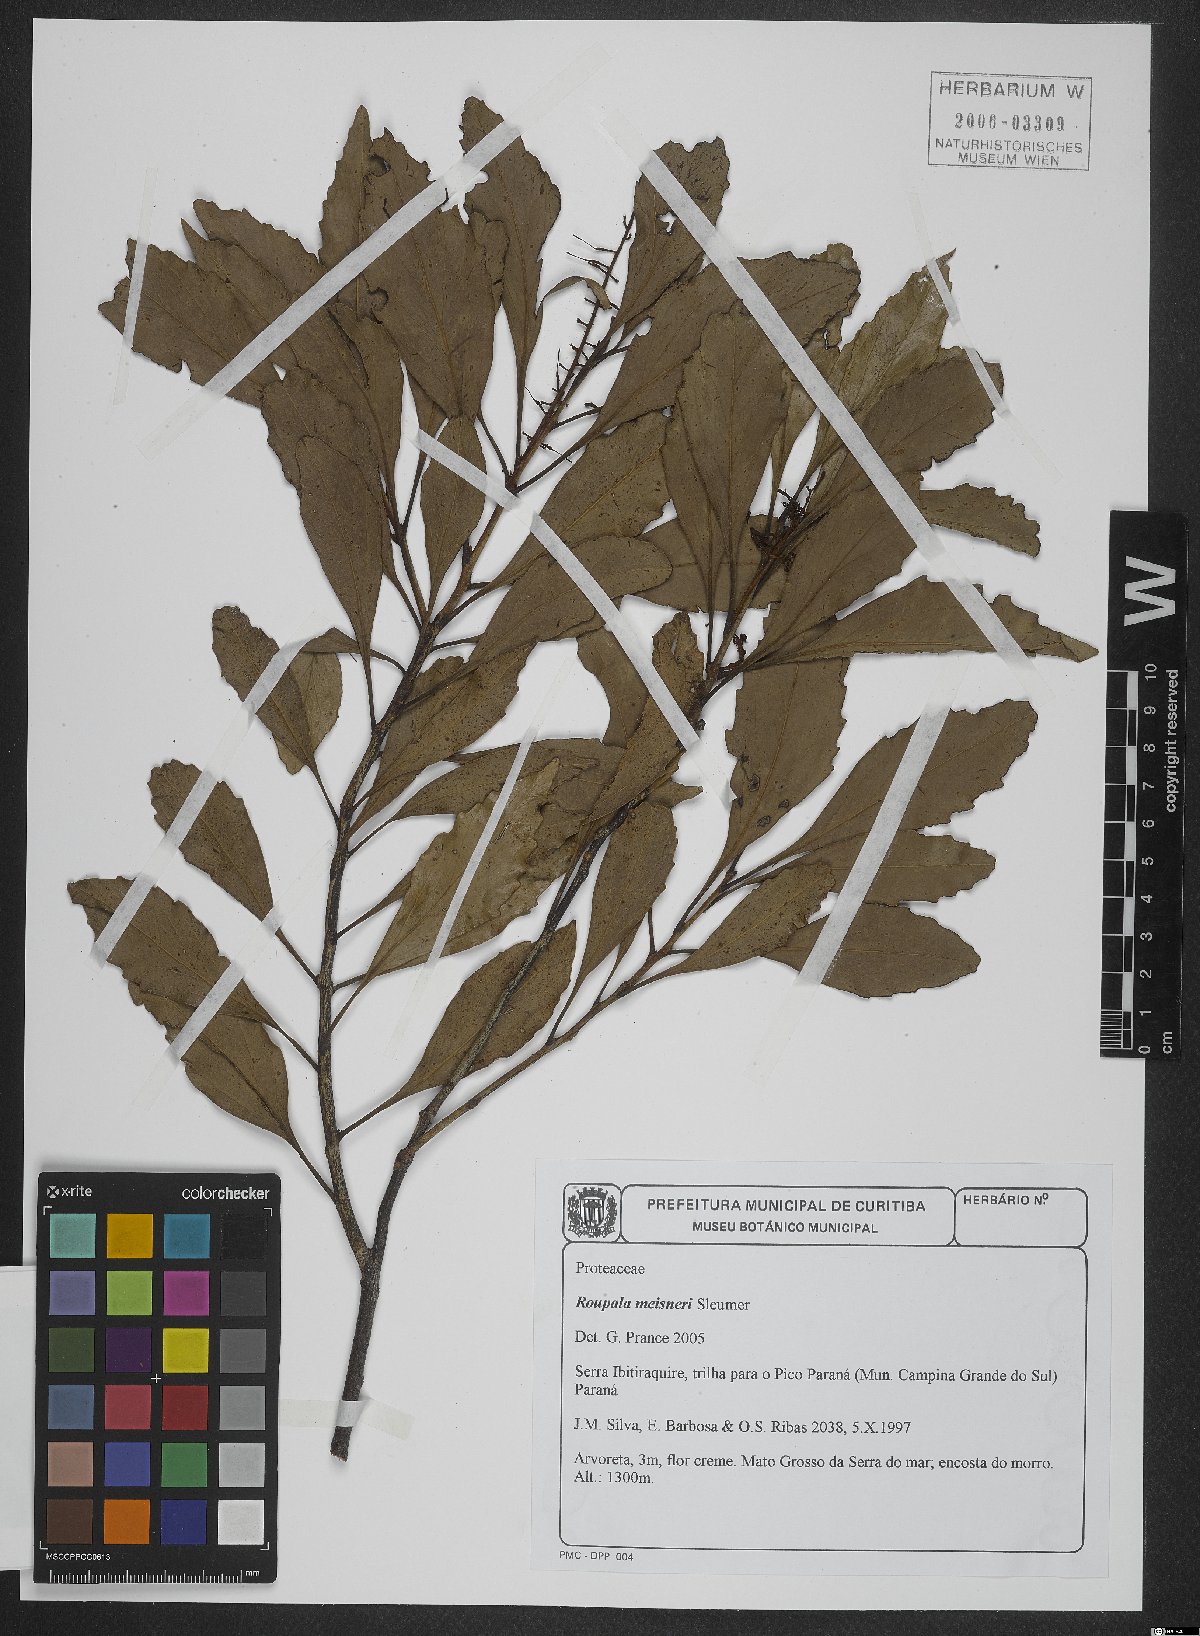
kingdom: Plantae
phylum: Tracheophyta
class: Magnoliopsida
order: Proteales
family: Proteaceae
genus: Roupala
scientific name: Roupala meisneri
